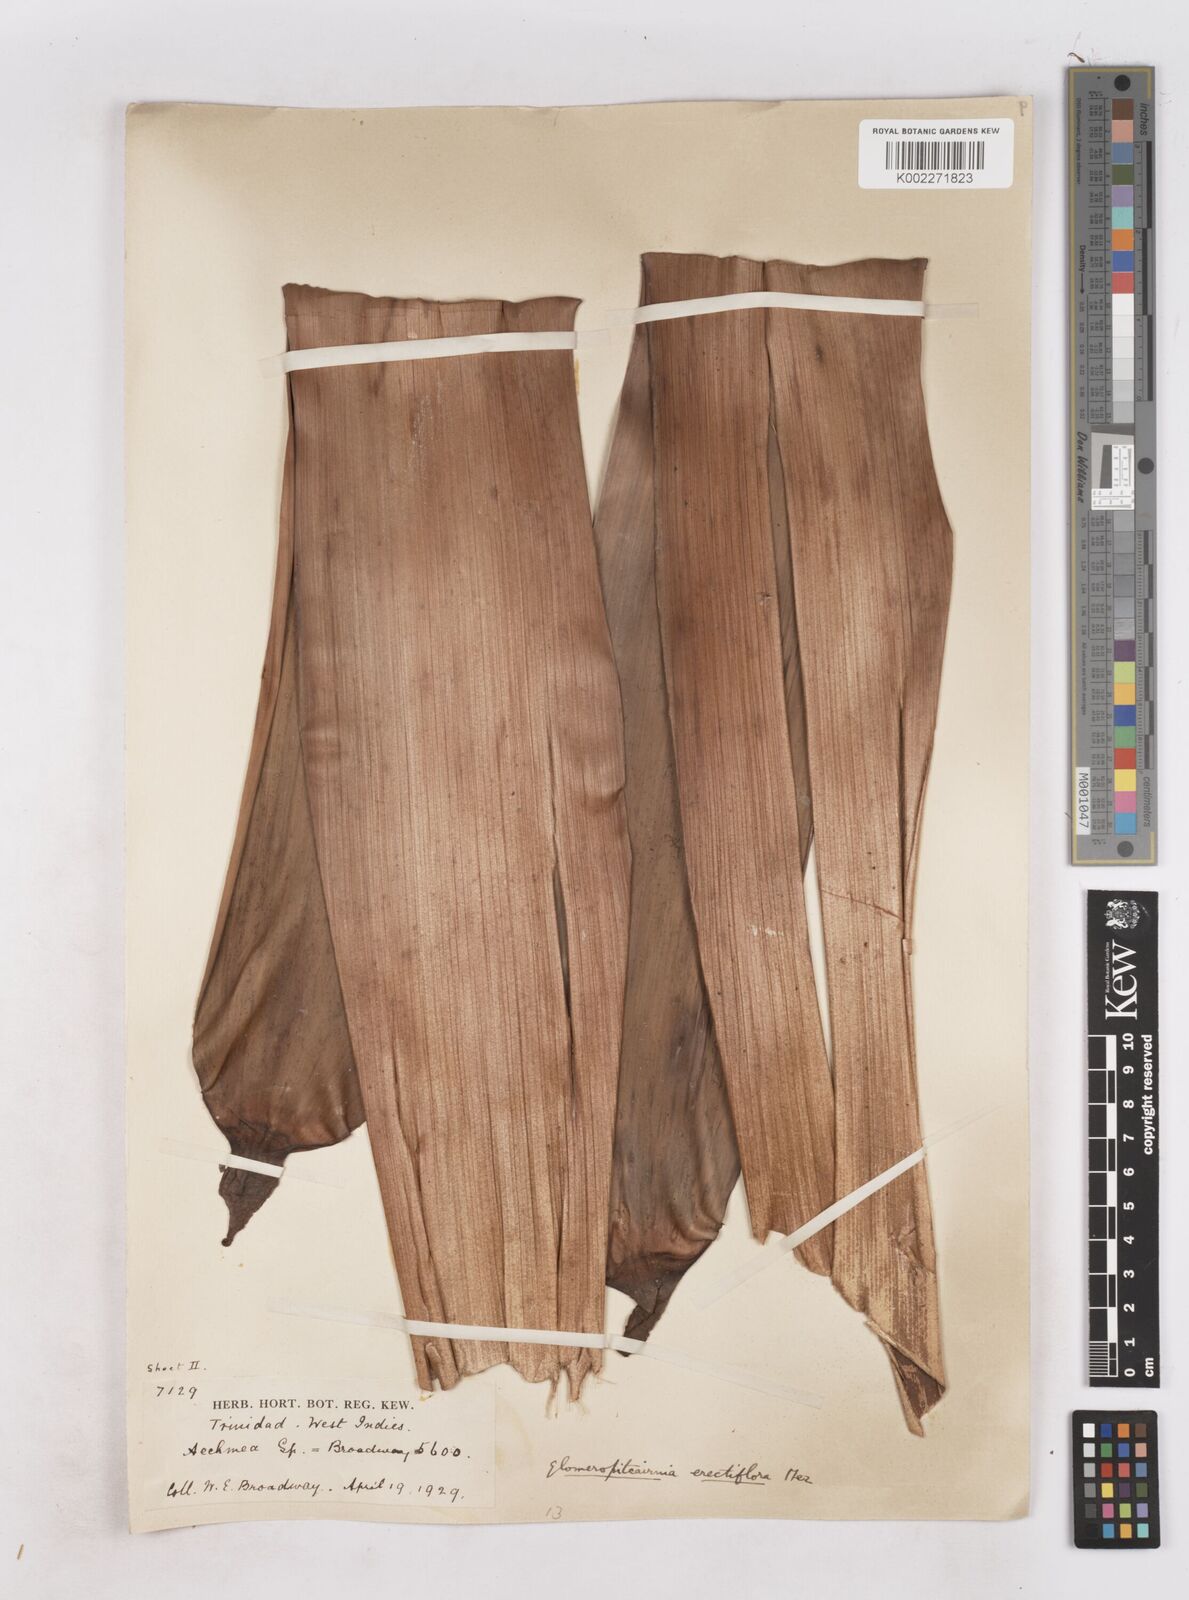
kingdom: Plantae
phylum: Tracheophyta
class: Liliopsida
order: Poales
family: Bromeliaceae
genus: Glomeropitcairnia
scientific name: Glomeropitcairnia erectiflora
